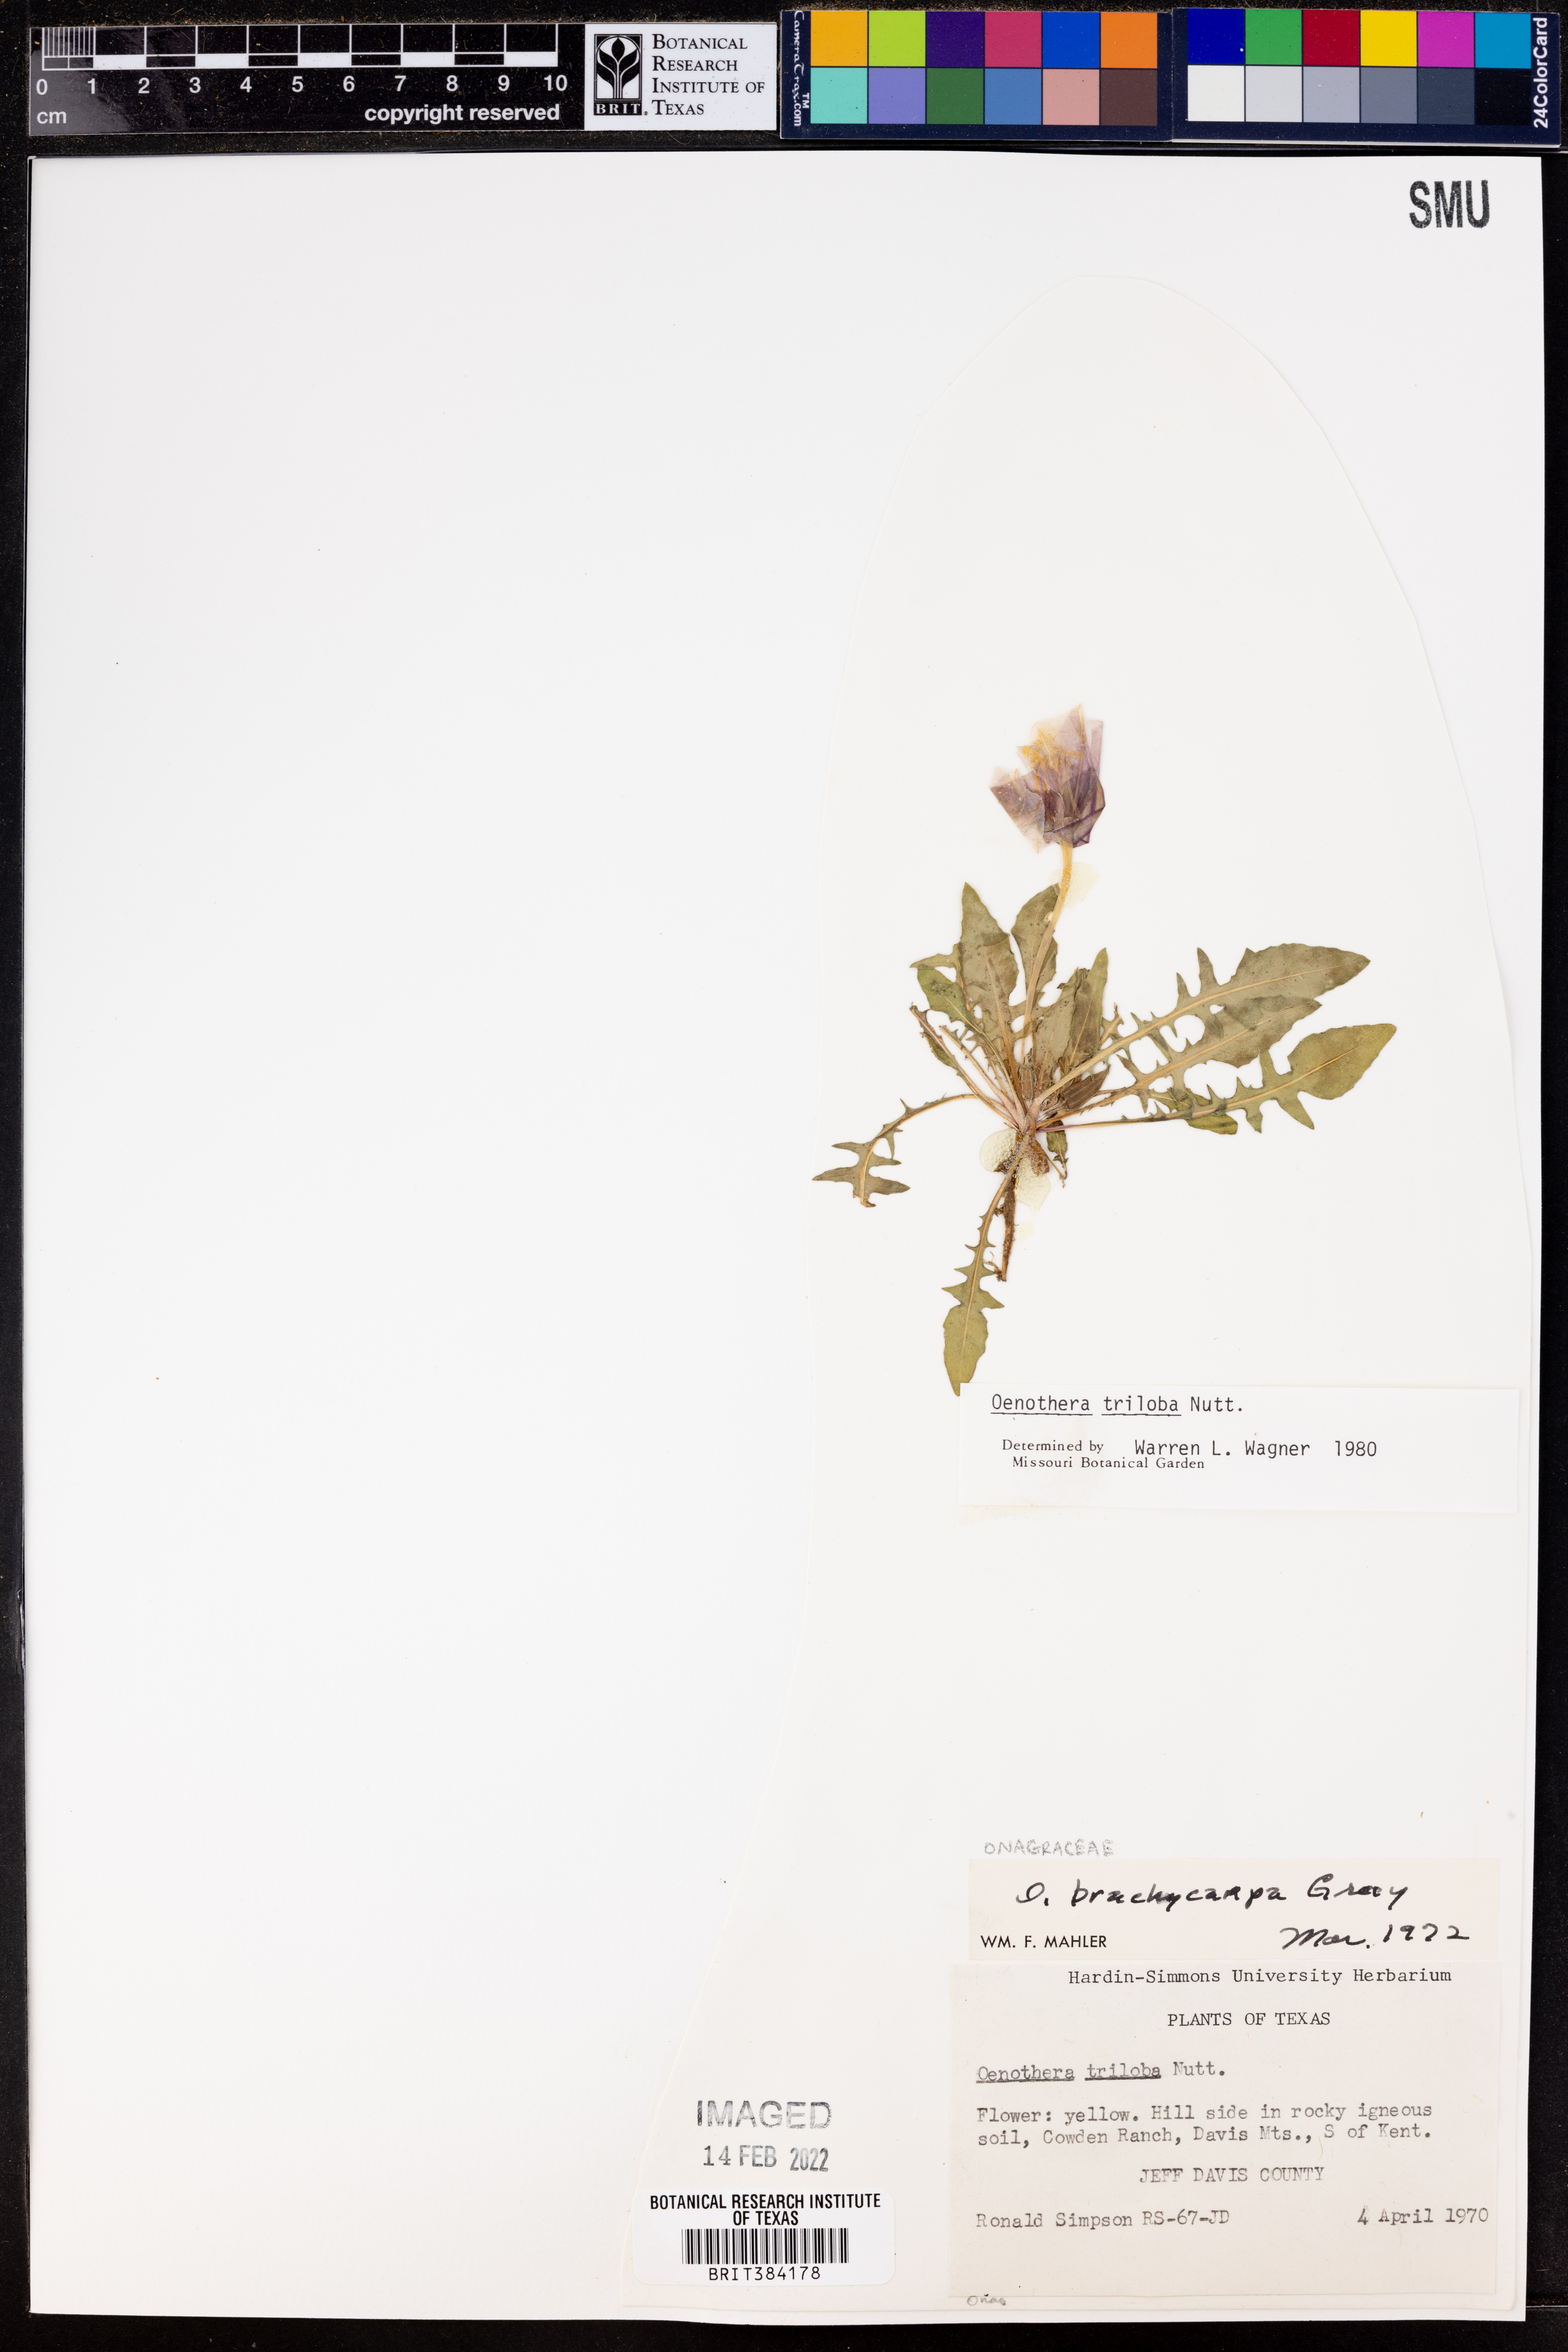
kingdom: Plantae
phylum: Tracheophyta
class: Magnoliopsida
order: Myrtales
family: Onagraceae
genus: Oenothera
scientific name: Oenothera brachycarpa
